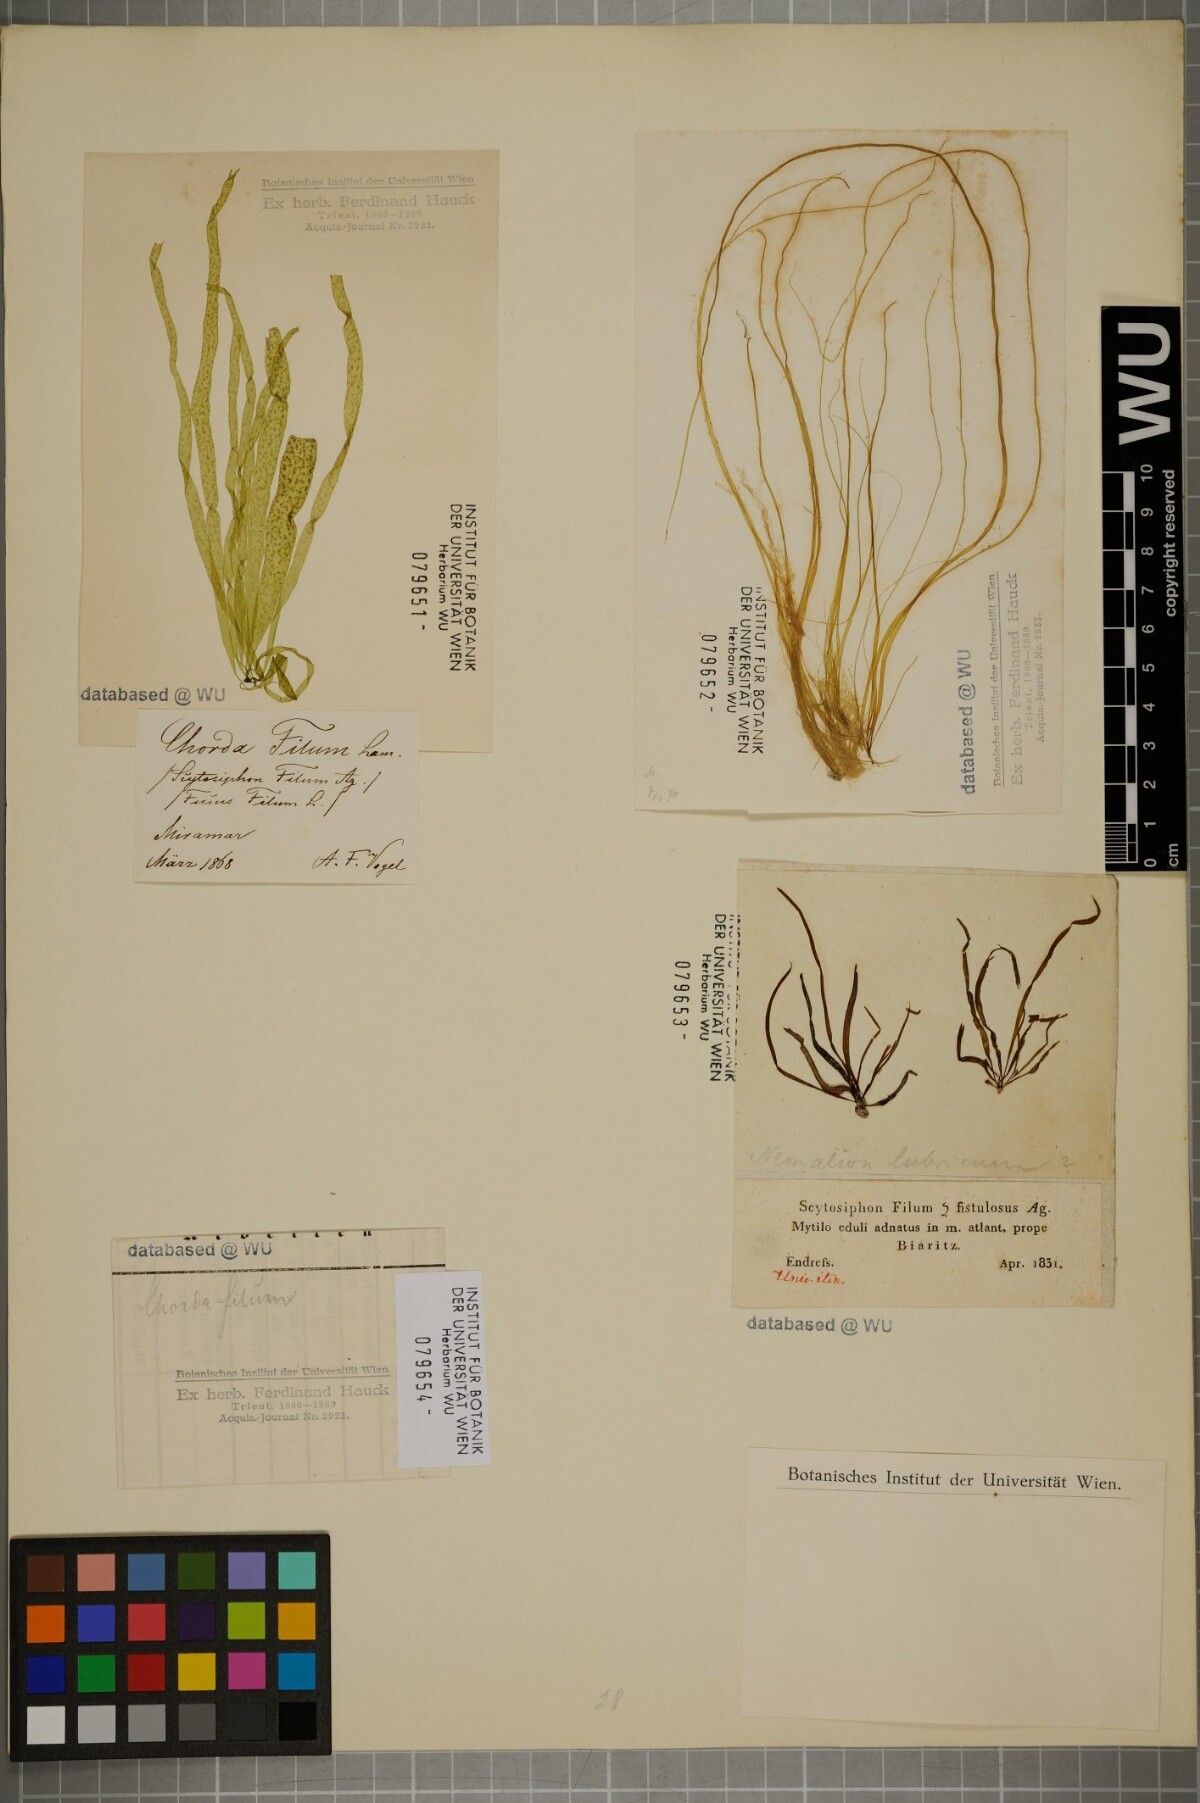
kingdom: Chromista
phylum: Ochrophyta
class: Phaeophyceae
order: Laminariales
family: Chordaceae
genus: Chorda
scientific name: Chorda filum
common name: Mermaid's tresses
